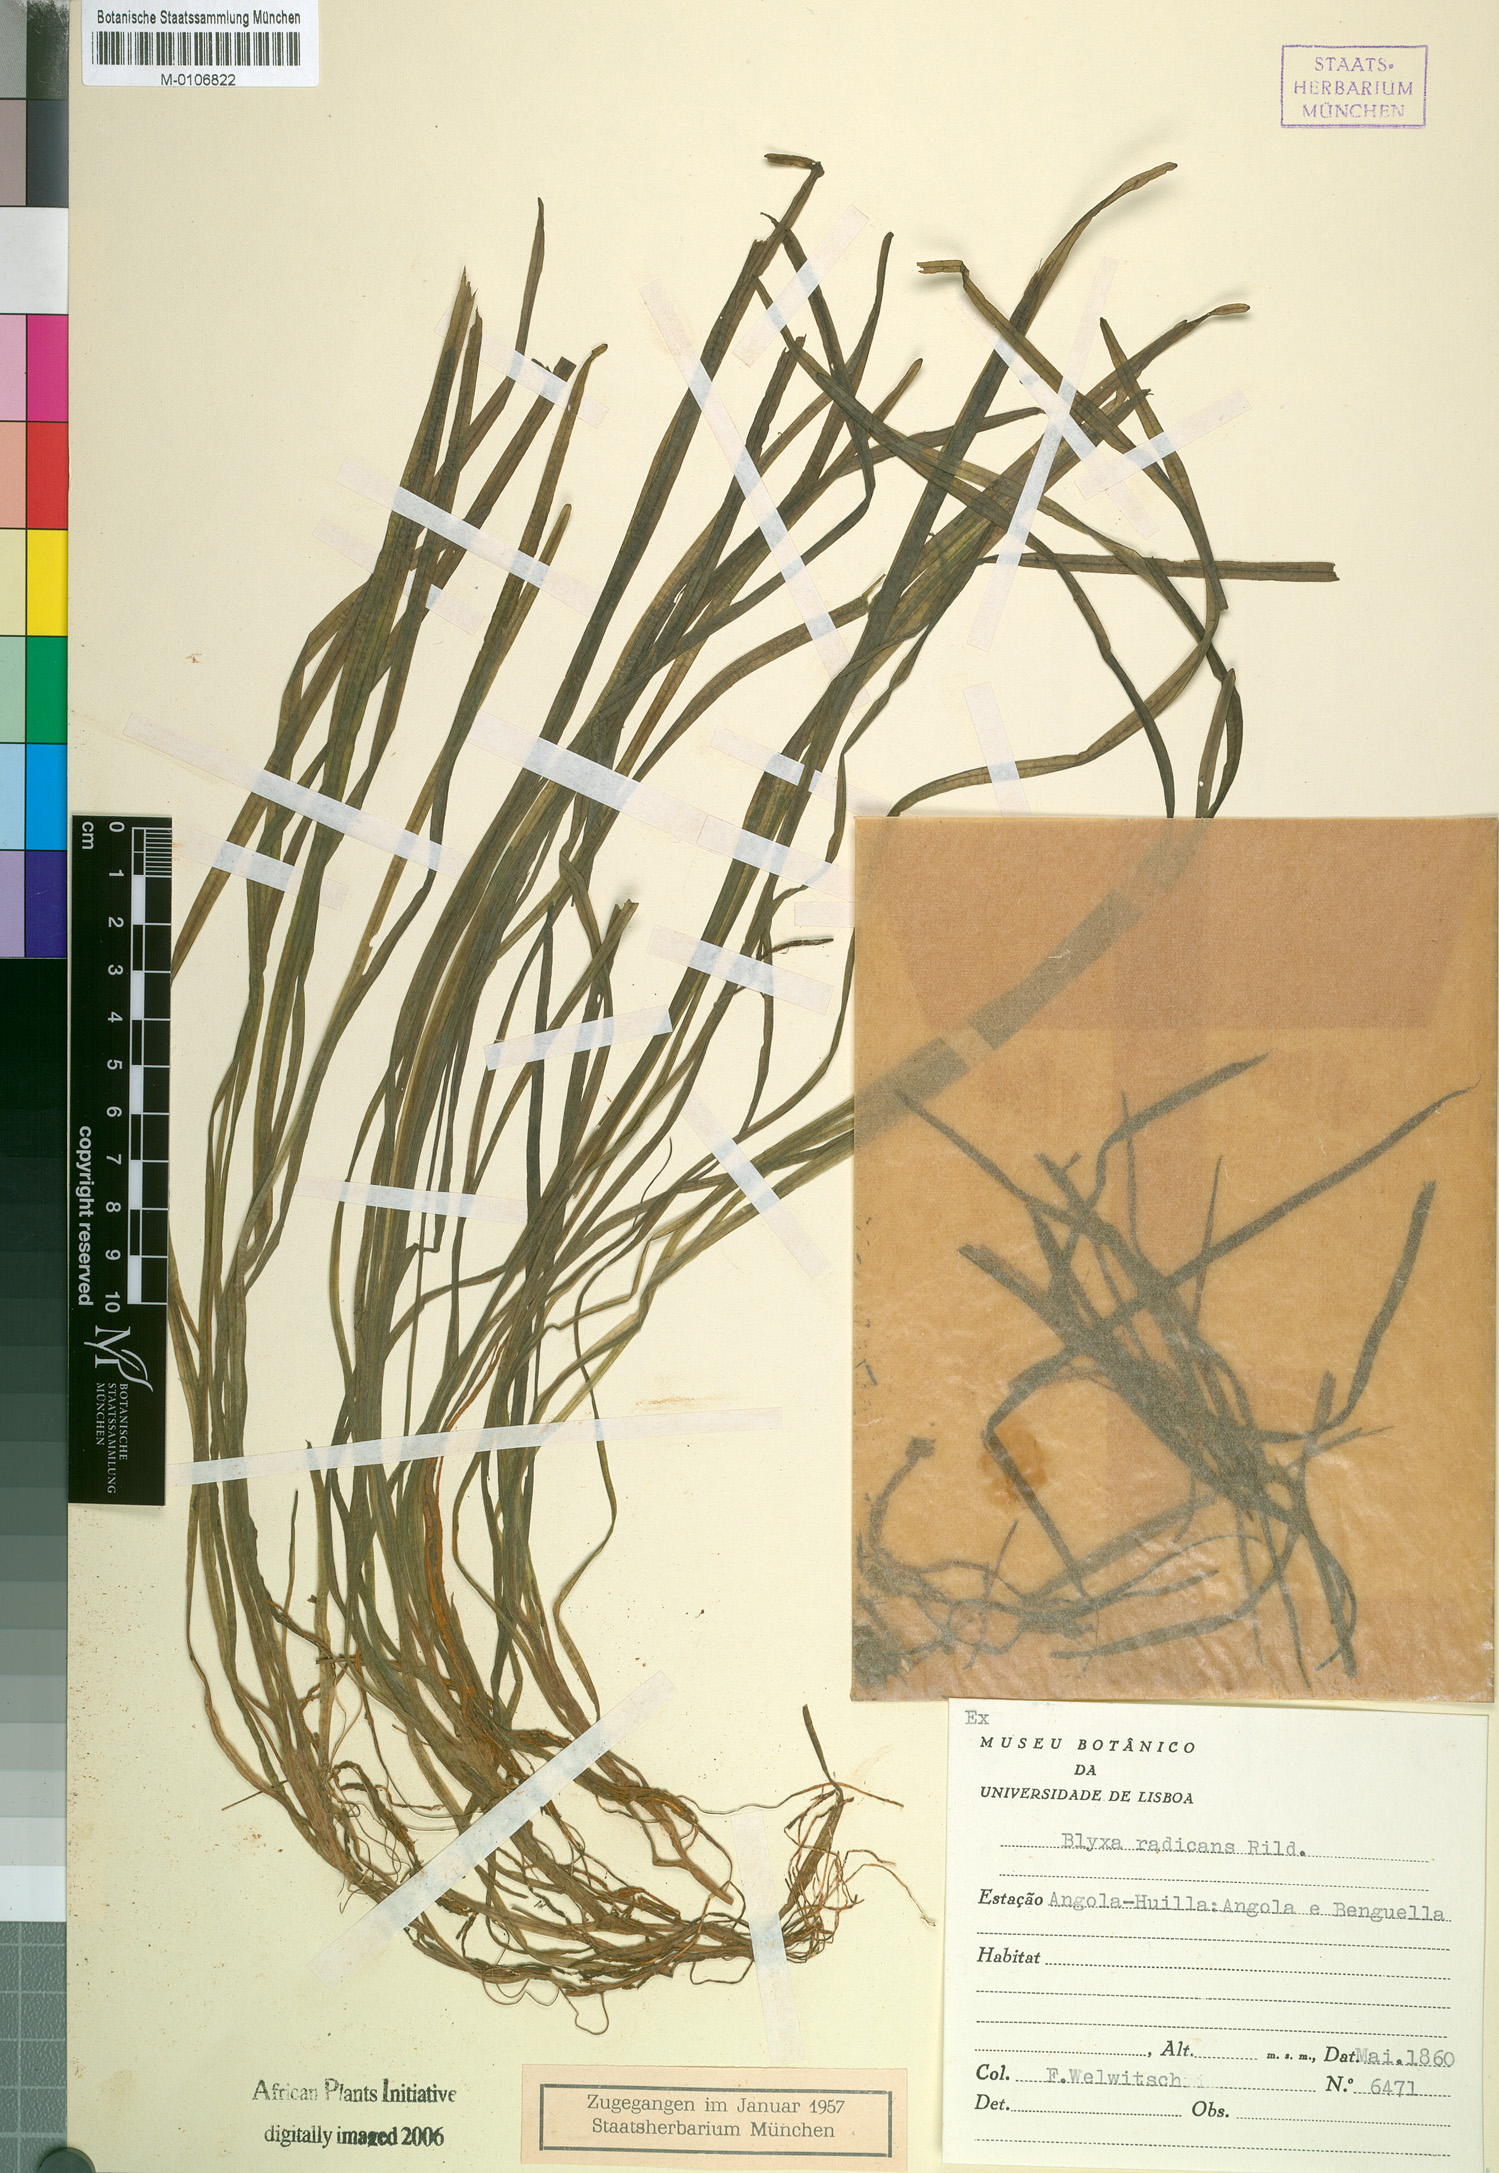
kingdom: Plantae
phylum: Tracheophyta
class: Liliopsida
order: Alismatales
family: Hydrocharitaceae
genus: Blyxa
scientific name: Blyxa radicans
